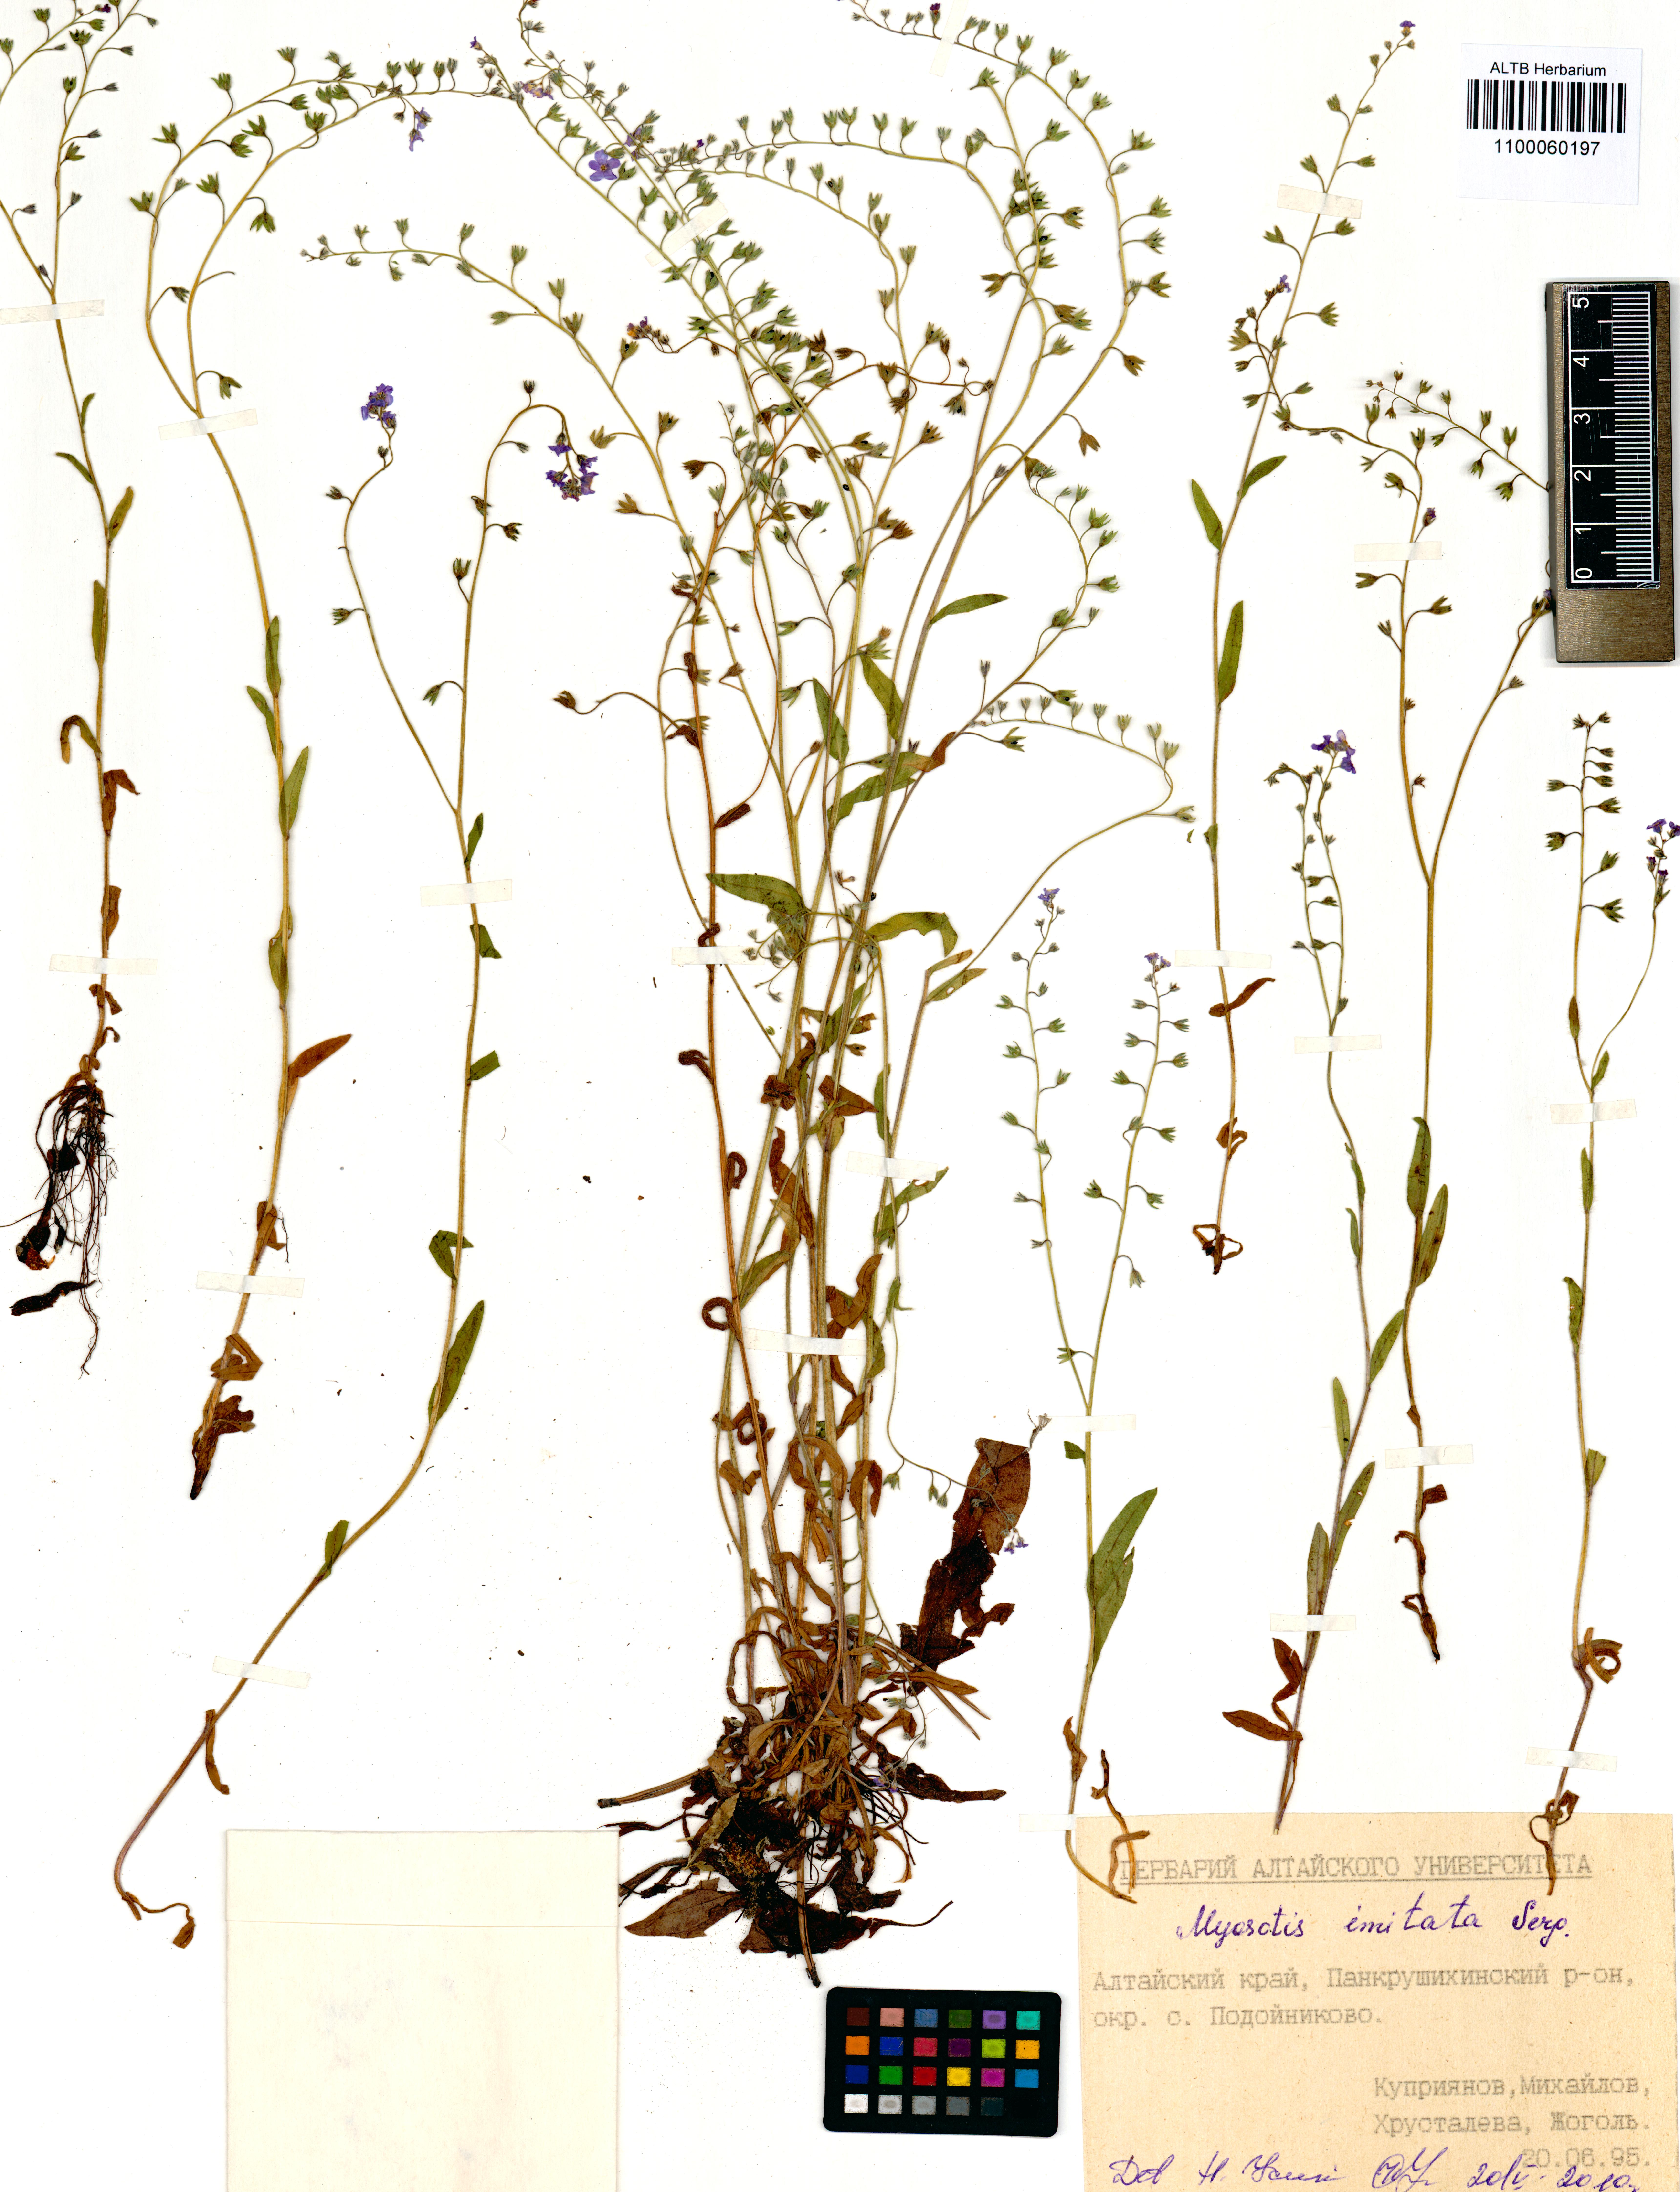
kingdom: Plantae
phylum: Tracheophyta
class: Magnoliopsida
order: Boraginales
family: Boraginaceae
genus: Myosotis
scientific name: Myosotis imitata
